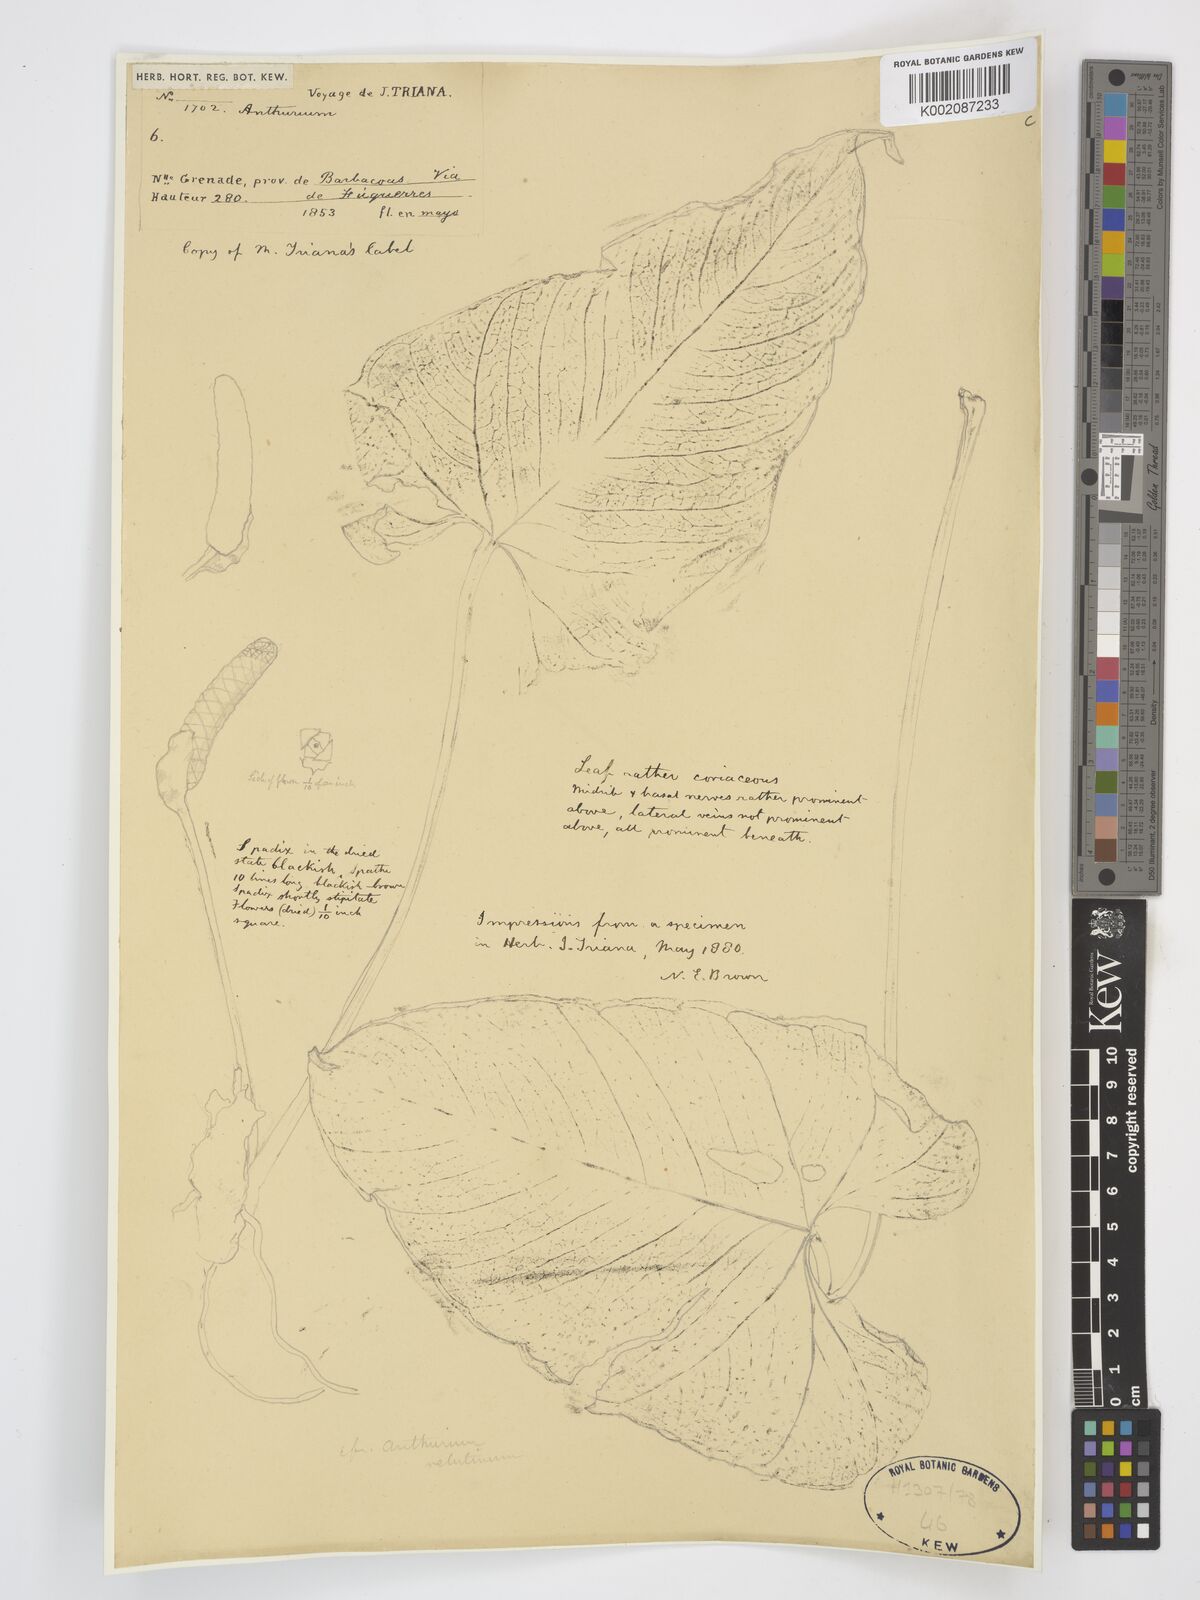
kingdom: Plantae
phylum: Tracheophyta
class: Liliopsida
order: Alismatales
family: Araceae
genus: Anthurium
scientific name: Anthurium
